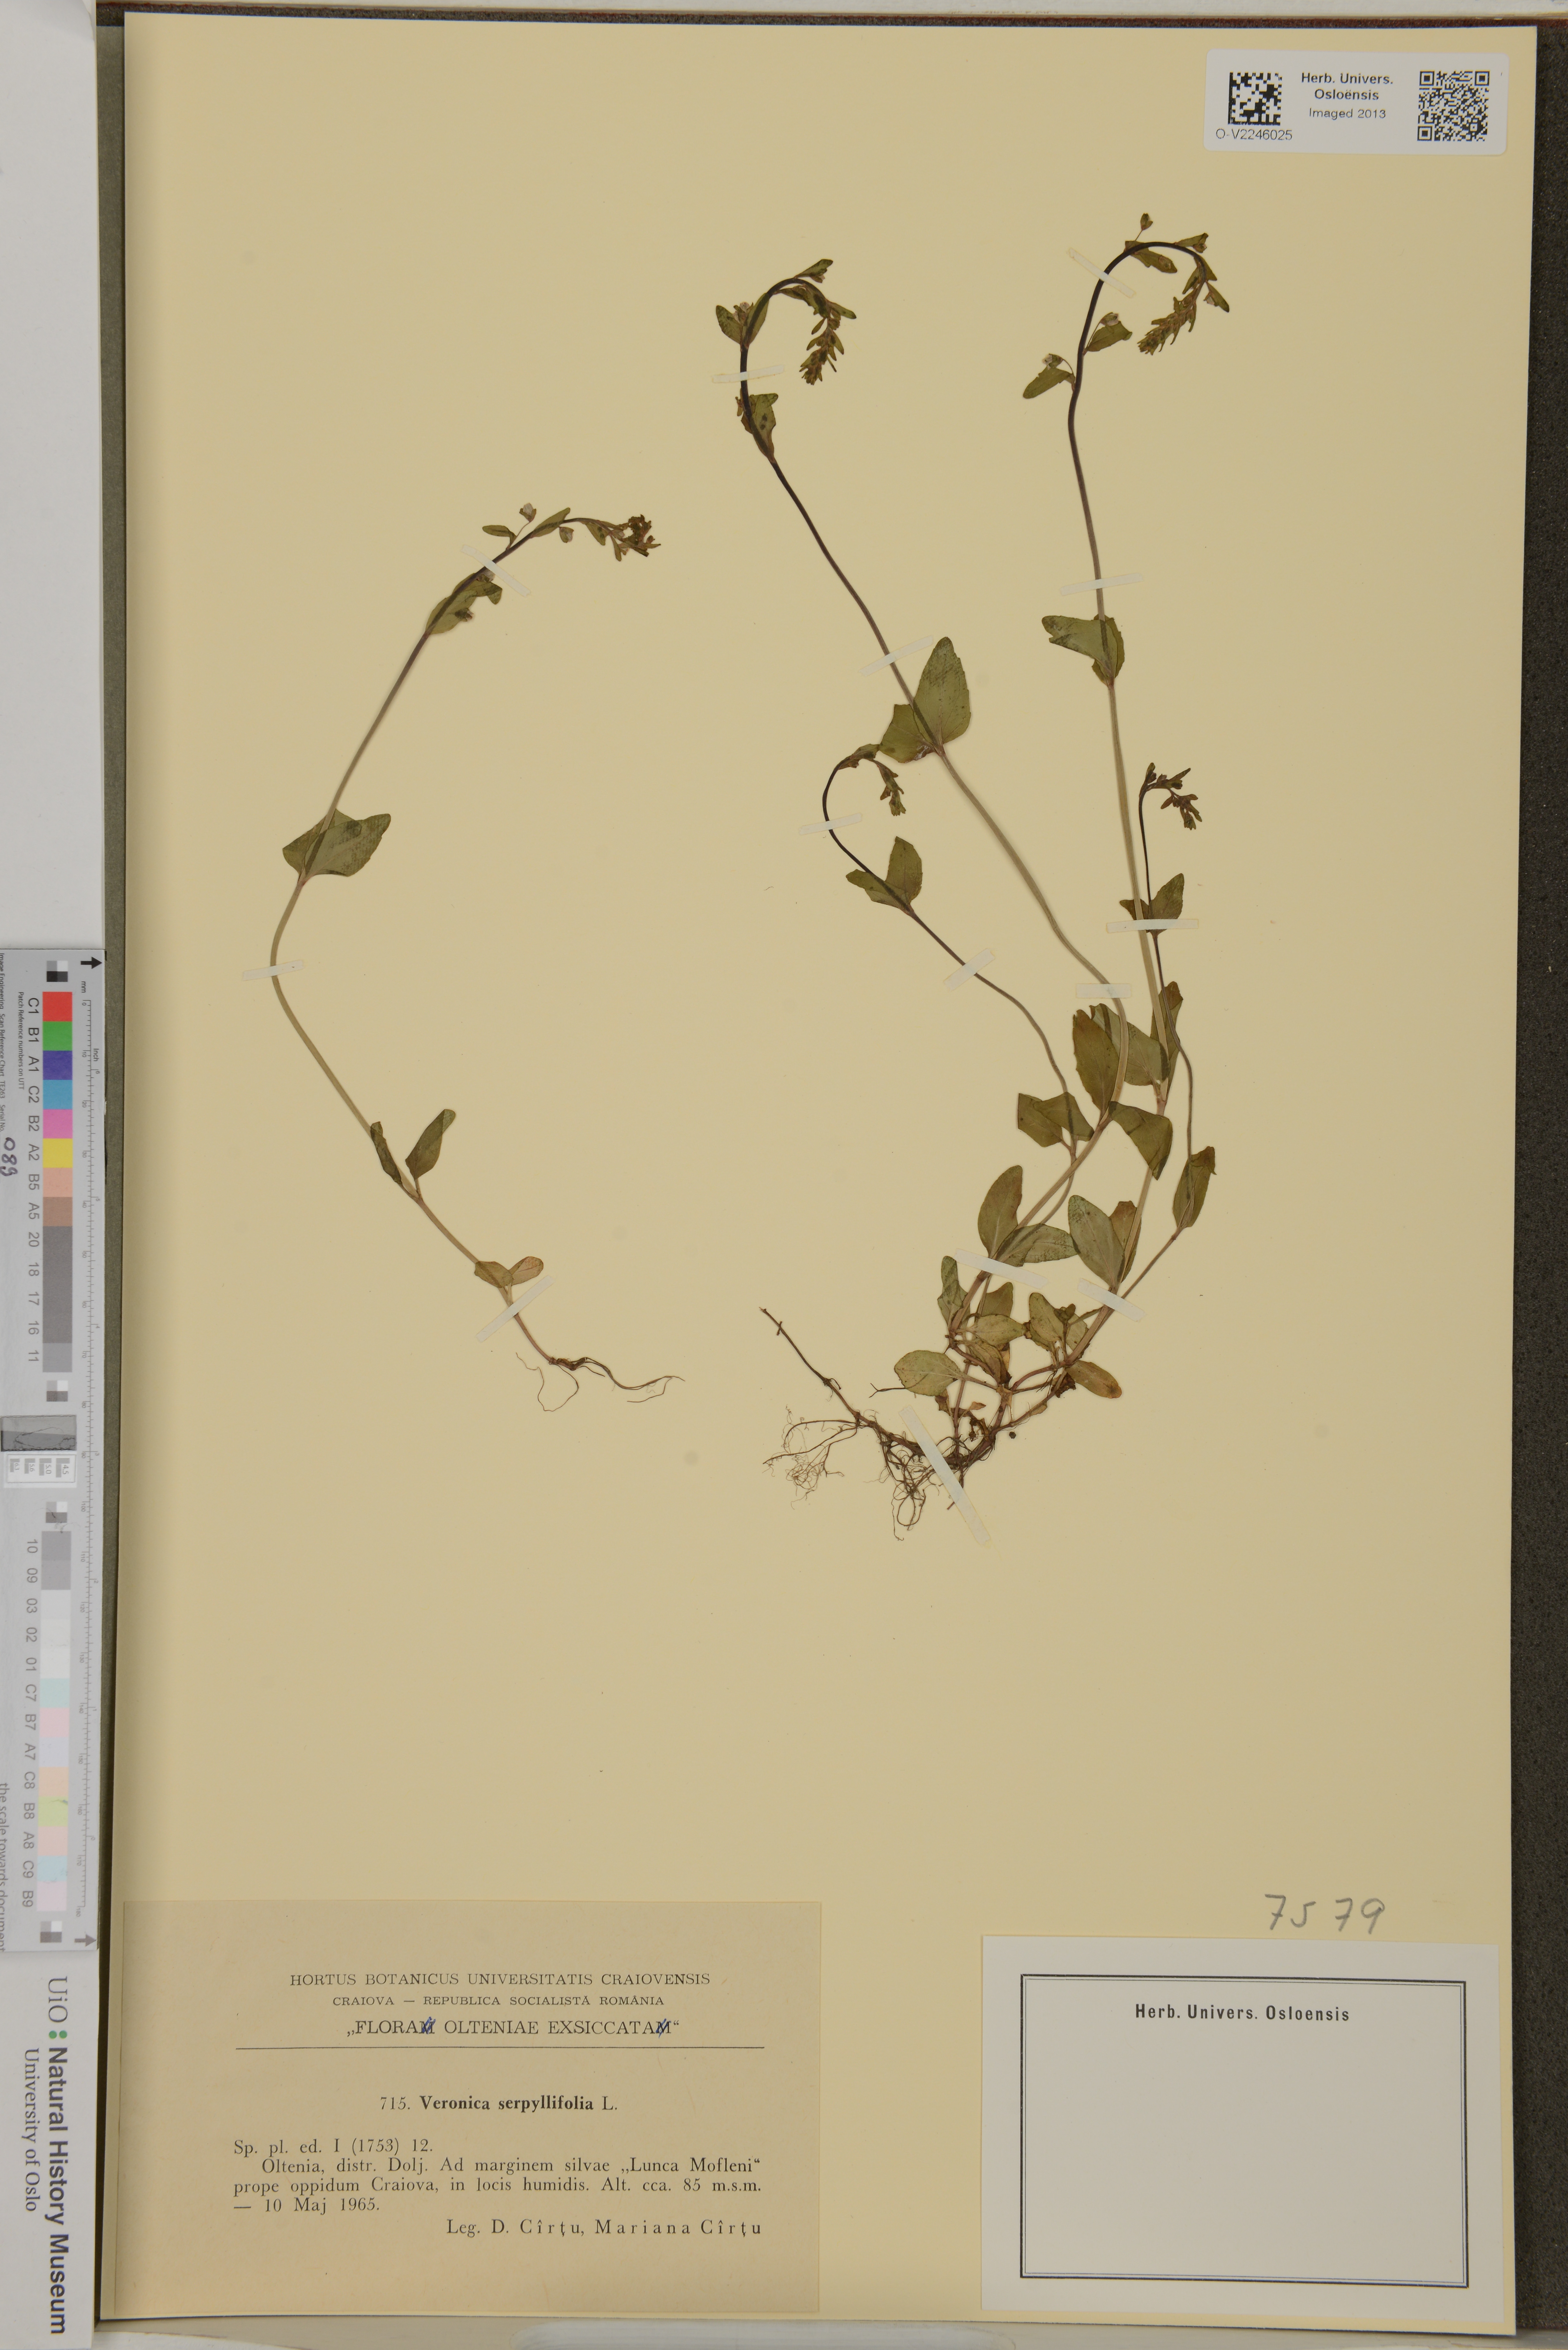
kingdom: Plantae
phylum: Tracheophyta
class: Magnoliopsida
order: Lamiales
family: Plantaginaceae
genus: Veronica
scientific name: Veronica serpyllifolia
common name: Thyme-leaved speedwell
